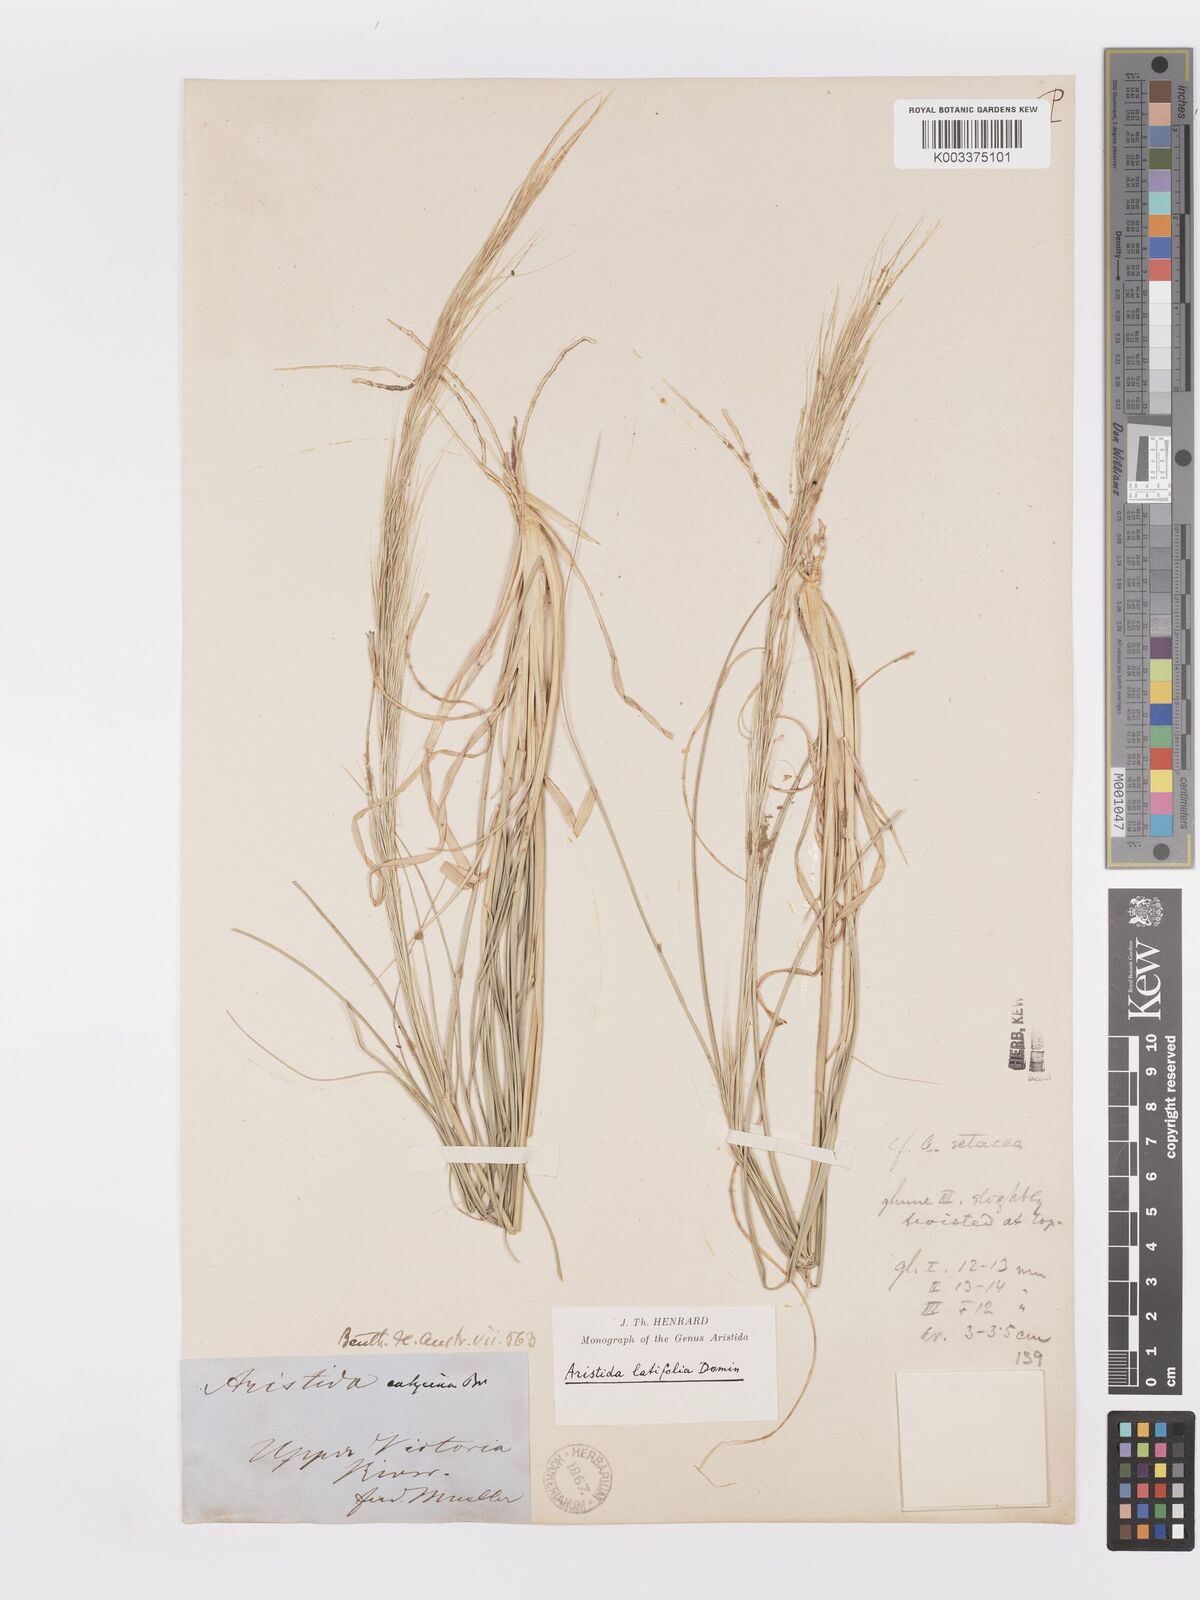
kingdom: Plantae
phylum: Tracheophyta
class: Liliopsida
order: Poales
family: Poaceae
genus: Aristida
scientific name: Aristida latifolia
